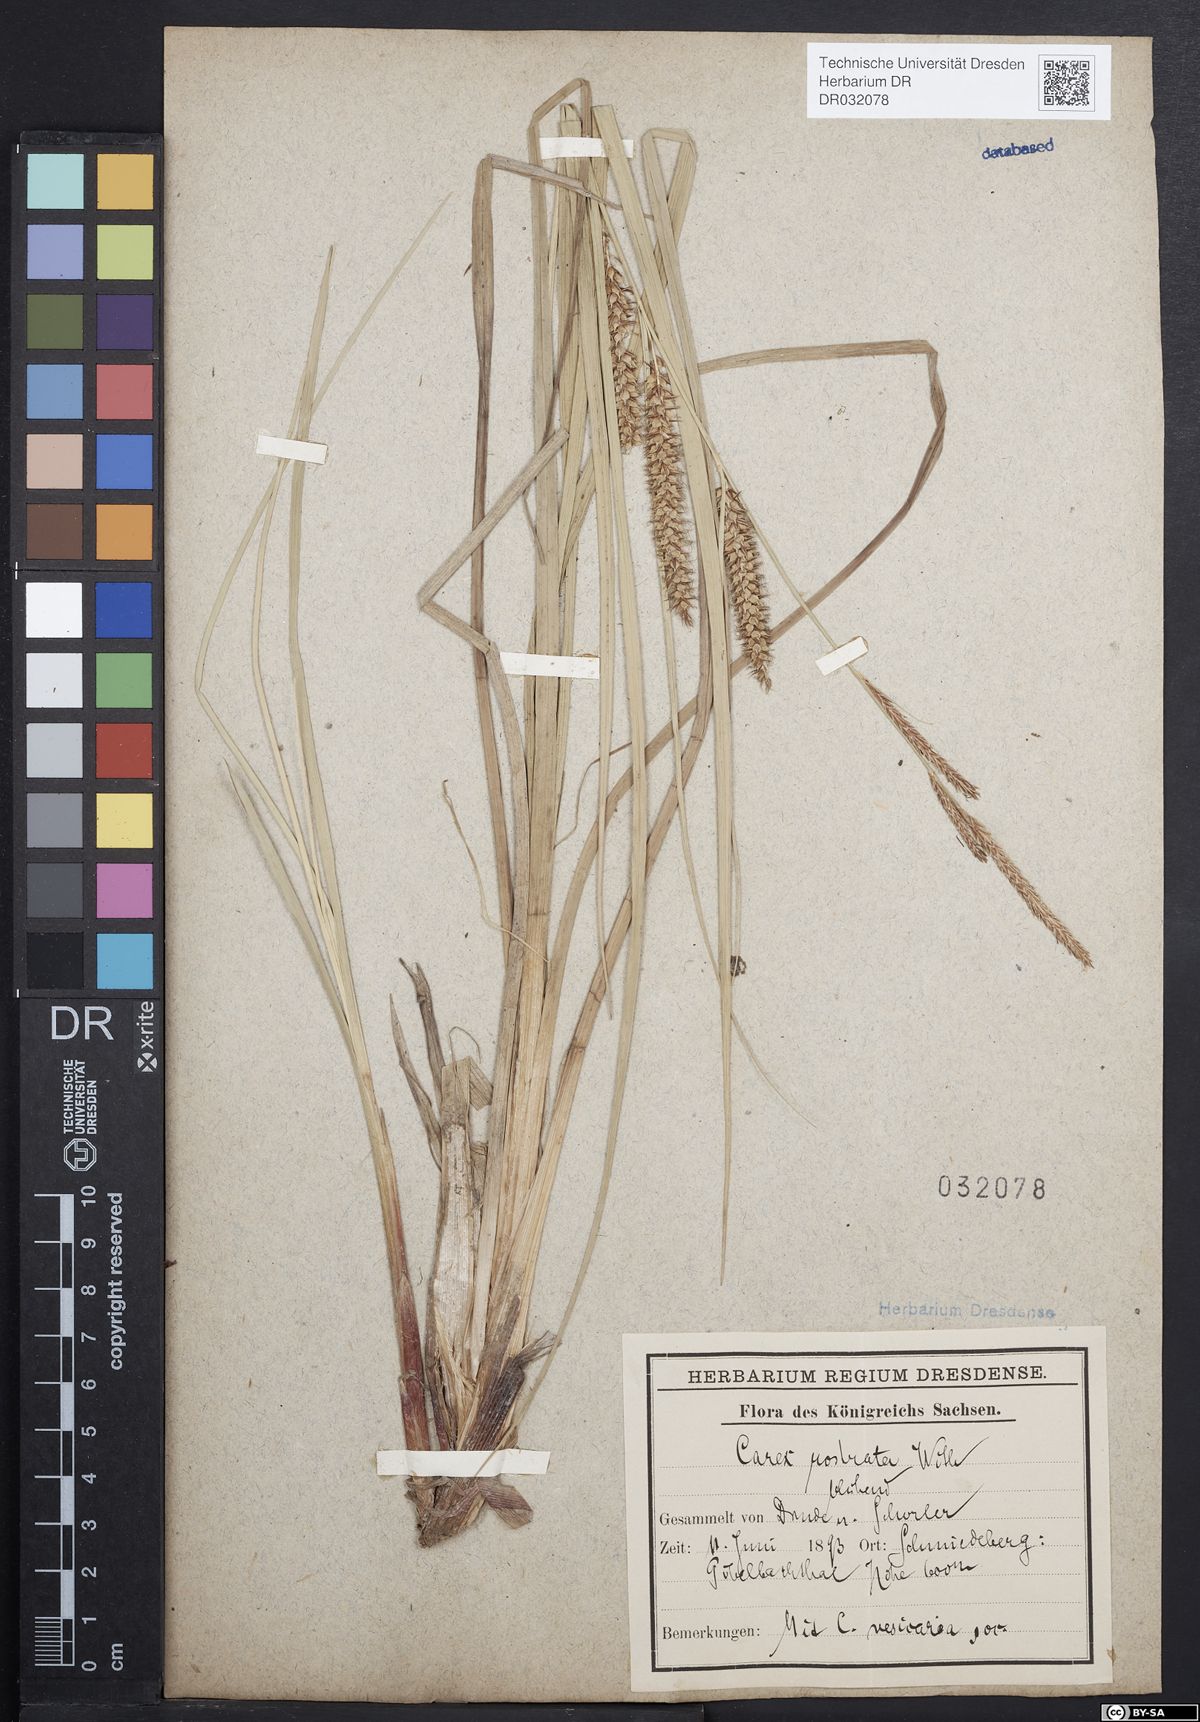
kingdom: Plantae
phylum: Tracheophyta
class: Liliopsida
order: Poales
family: Cyperaceae
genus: Carex
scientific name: Carex rostrata
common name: Bottle sedge
